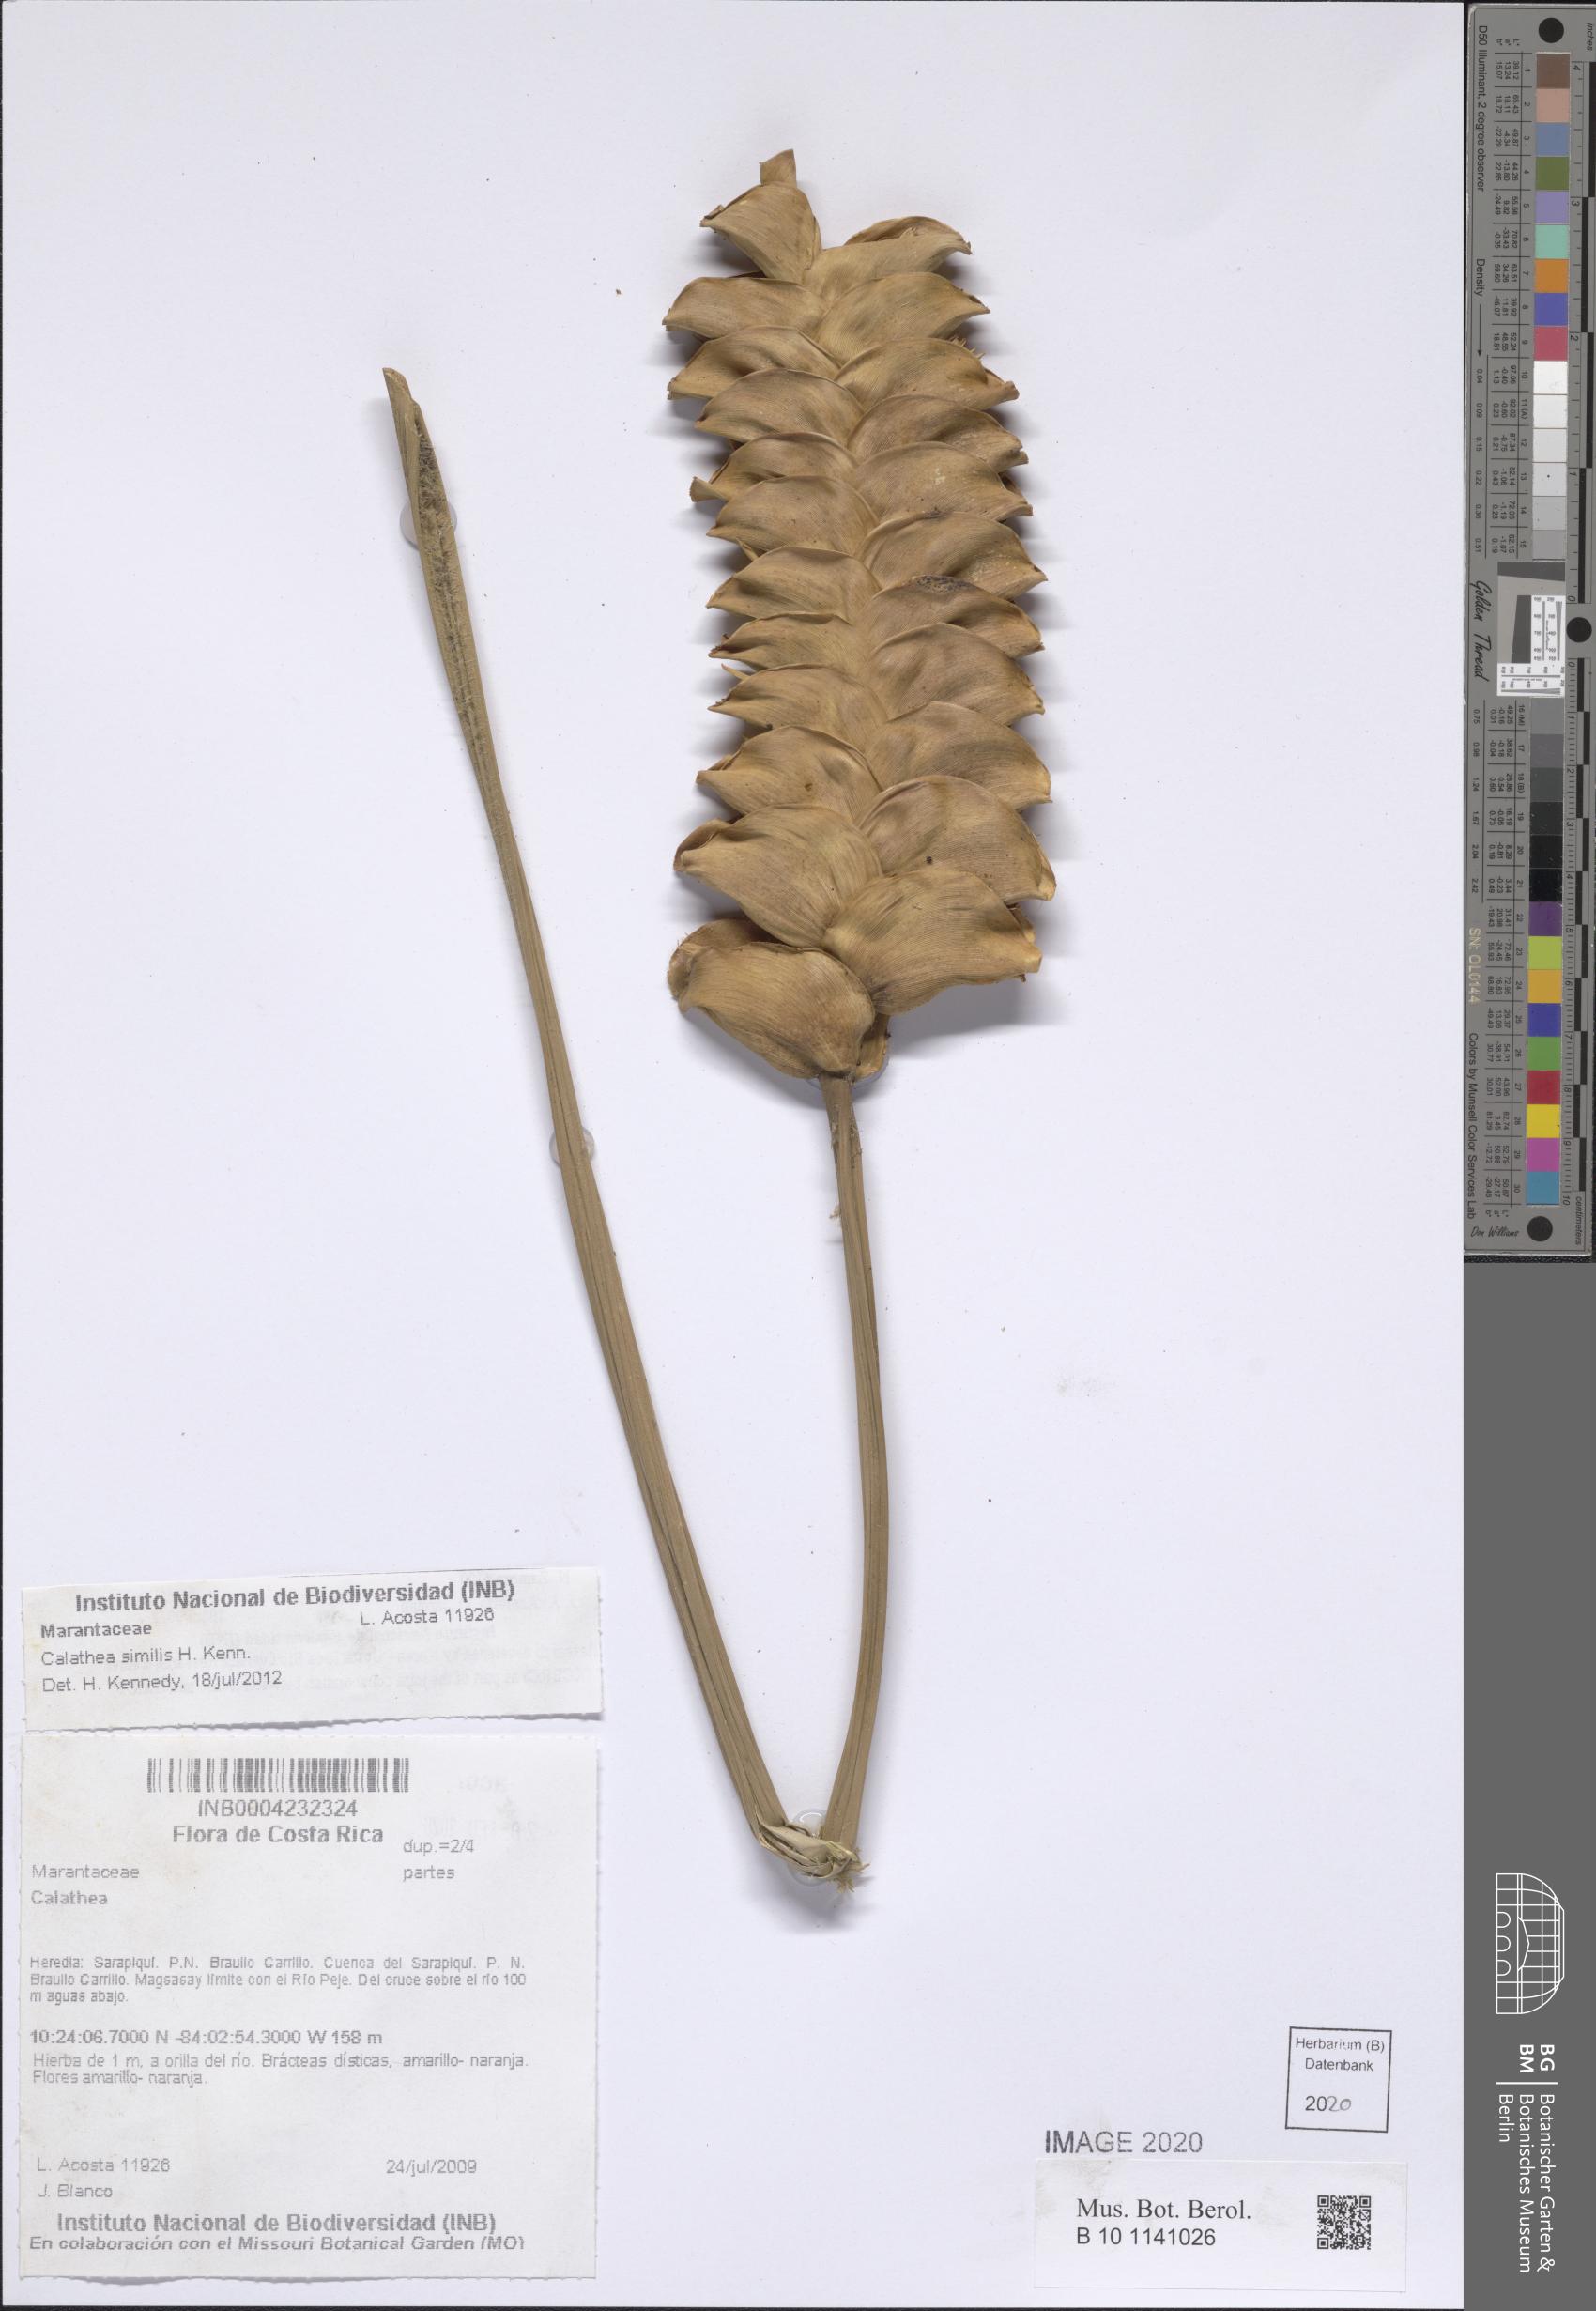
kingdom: Plantae
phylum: Tracheophyta
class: Liliopsida
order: Zingiberales
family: Marantaceae
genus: Calathea
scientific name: Calathea similis
